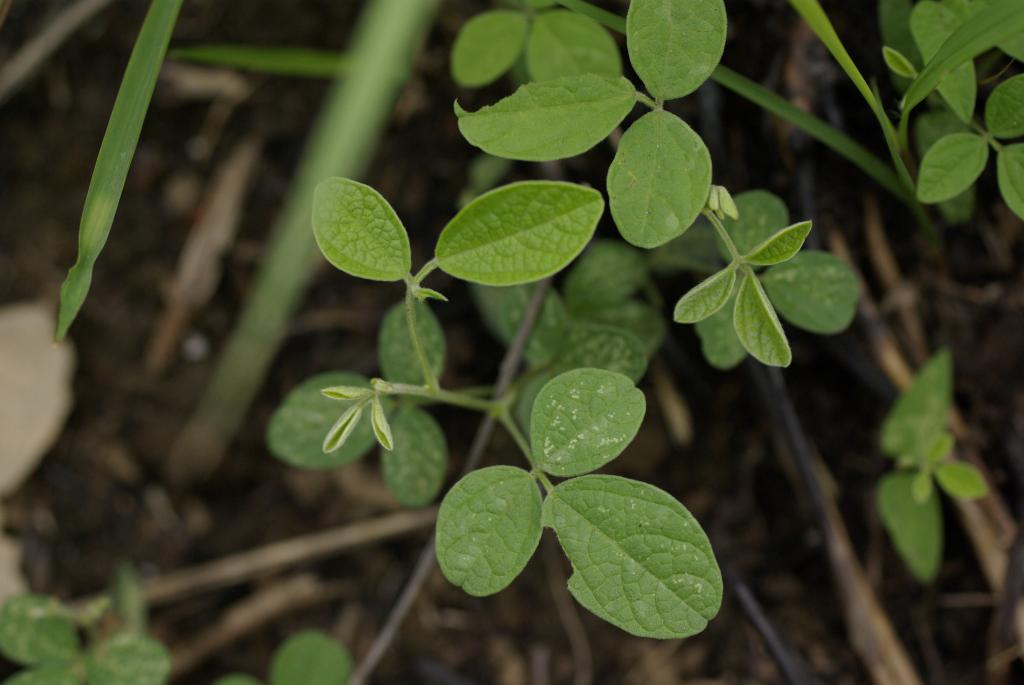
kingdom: Plantae
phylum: Tracheophyta
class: Magnoliopsida
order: Fabales
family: Fabaceae
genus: Cajanus
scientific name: Cajanus scarabaeoides
